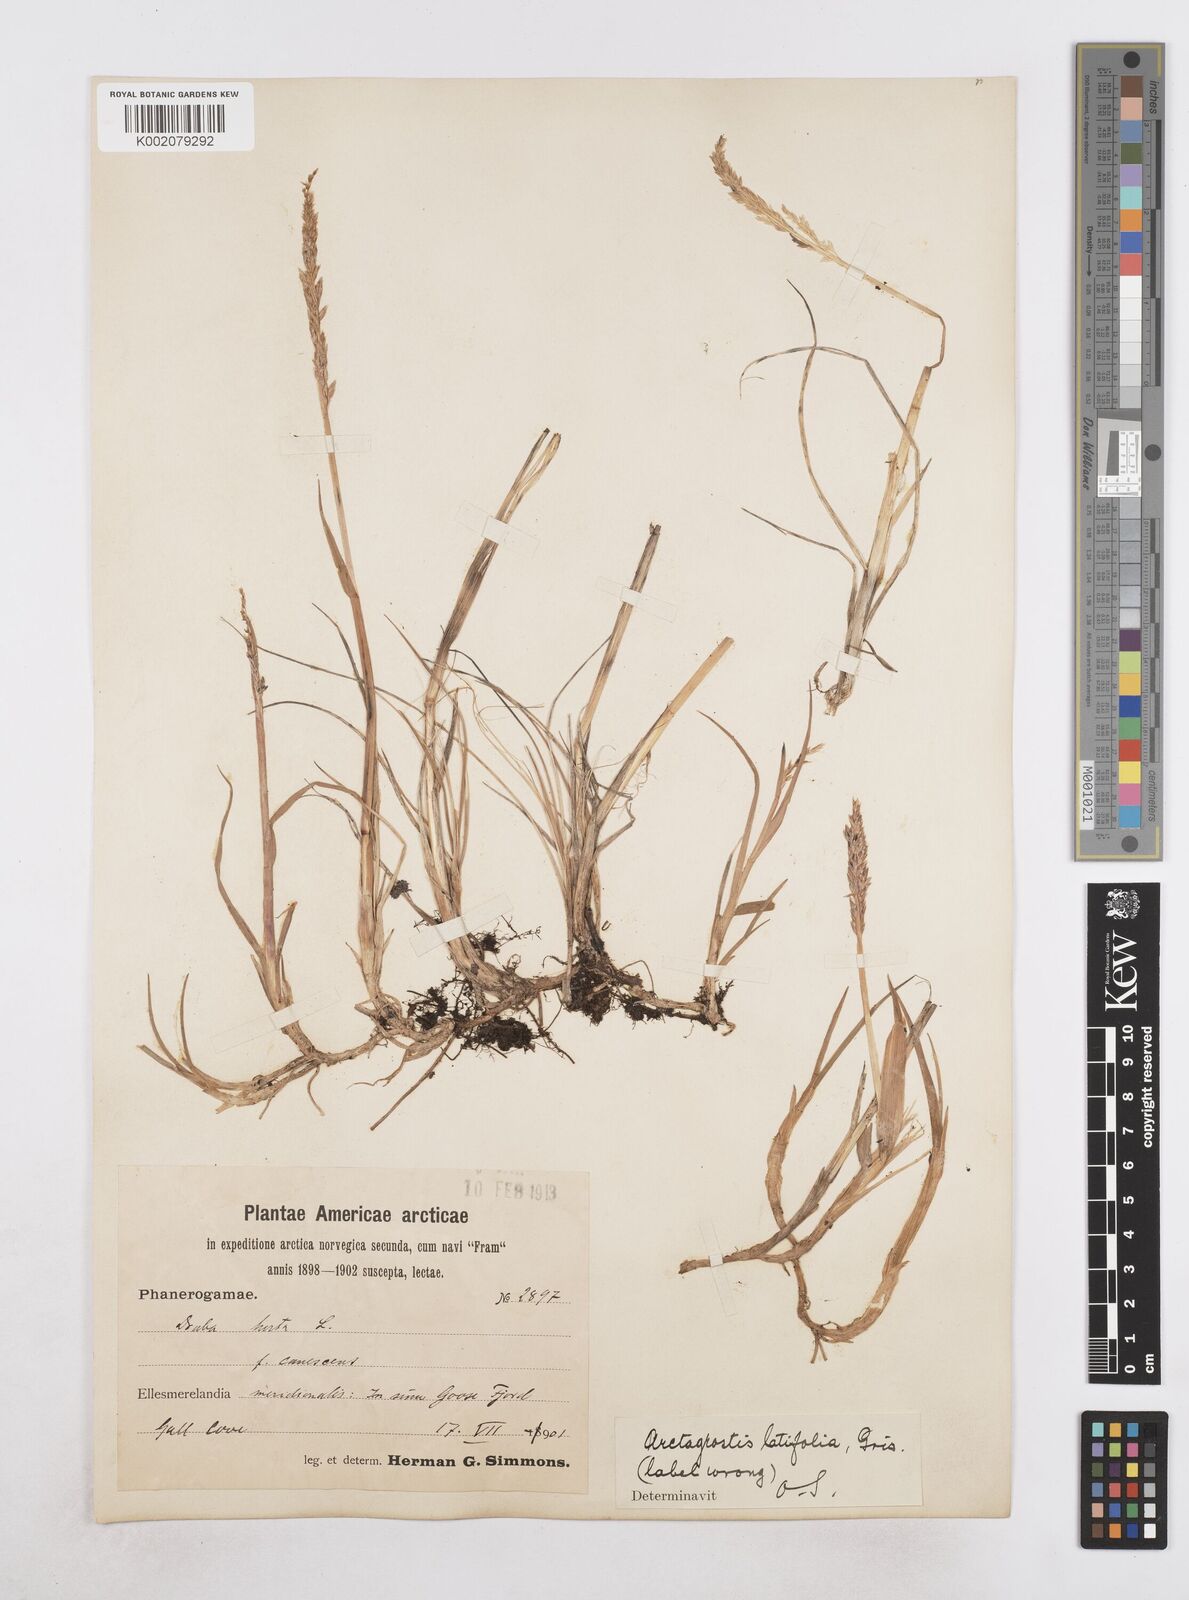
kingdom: Plantae
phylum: Tracheophyta
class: Liliopsida
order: Poales
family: Poaceae
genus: Arctagrostis
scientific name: Arctagrostis latifolia
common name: Arctic grass
